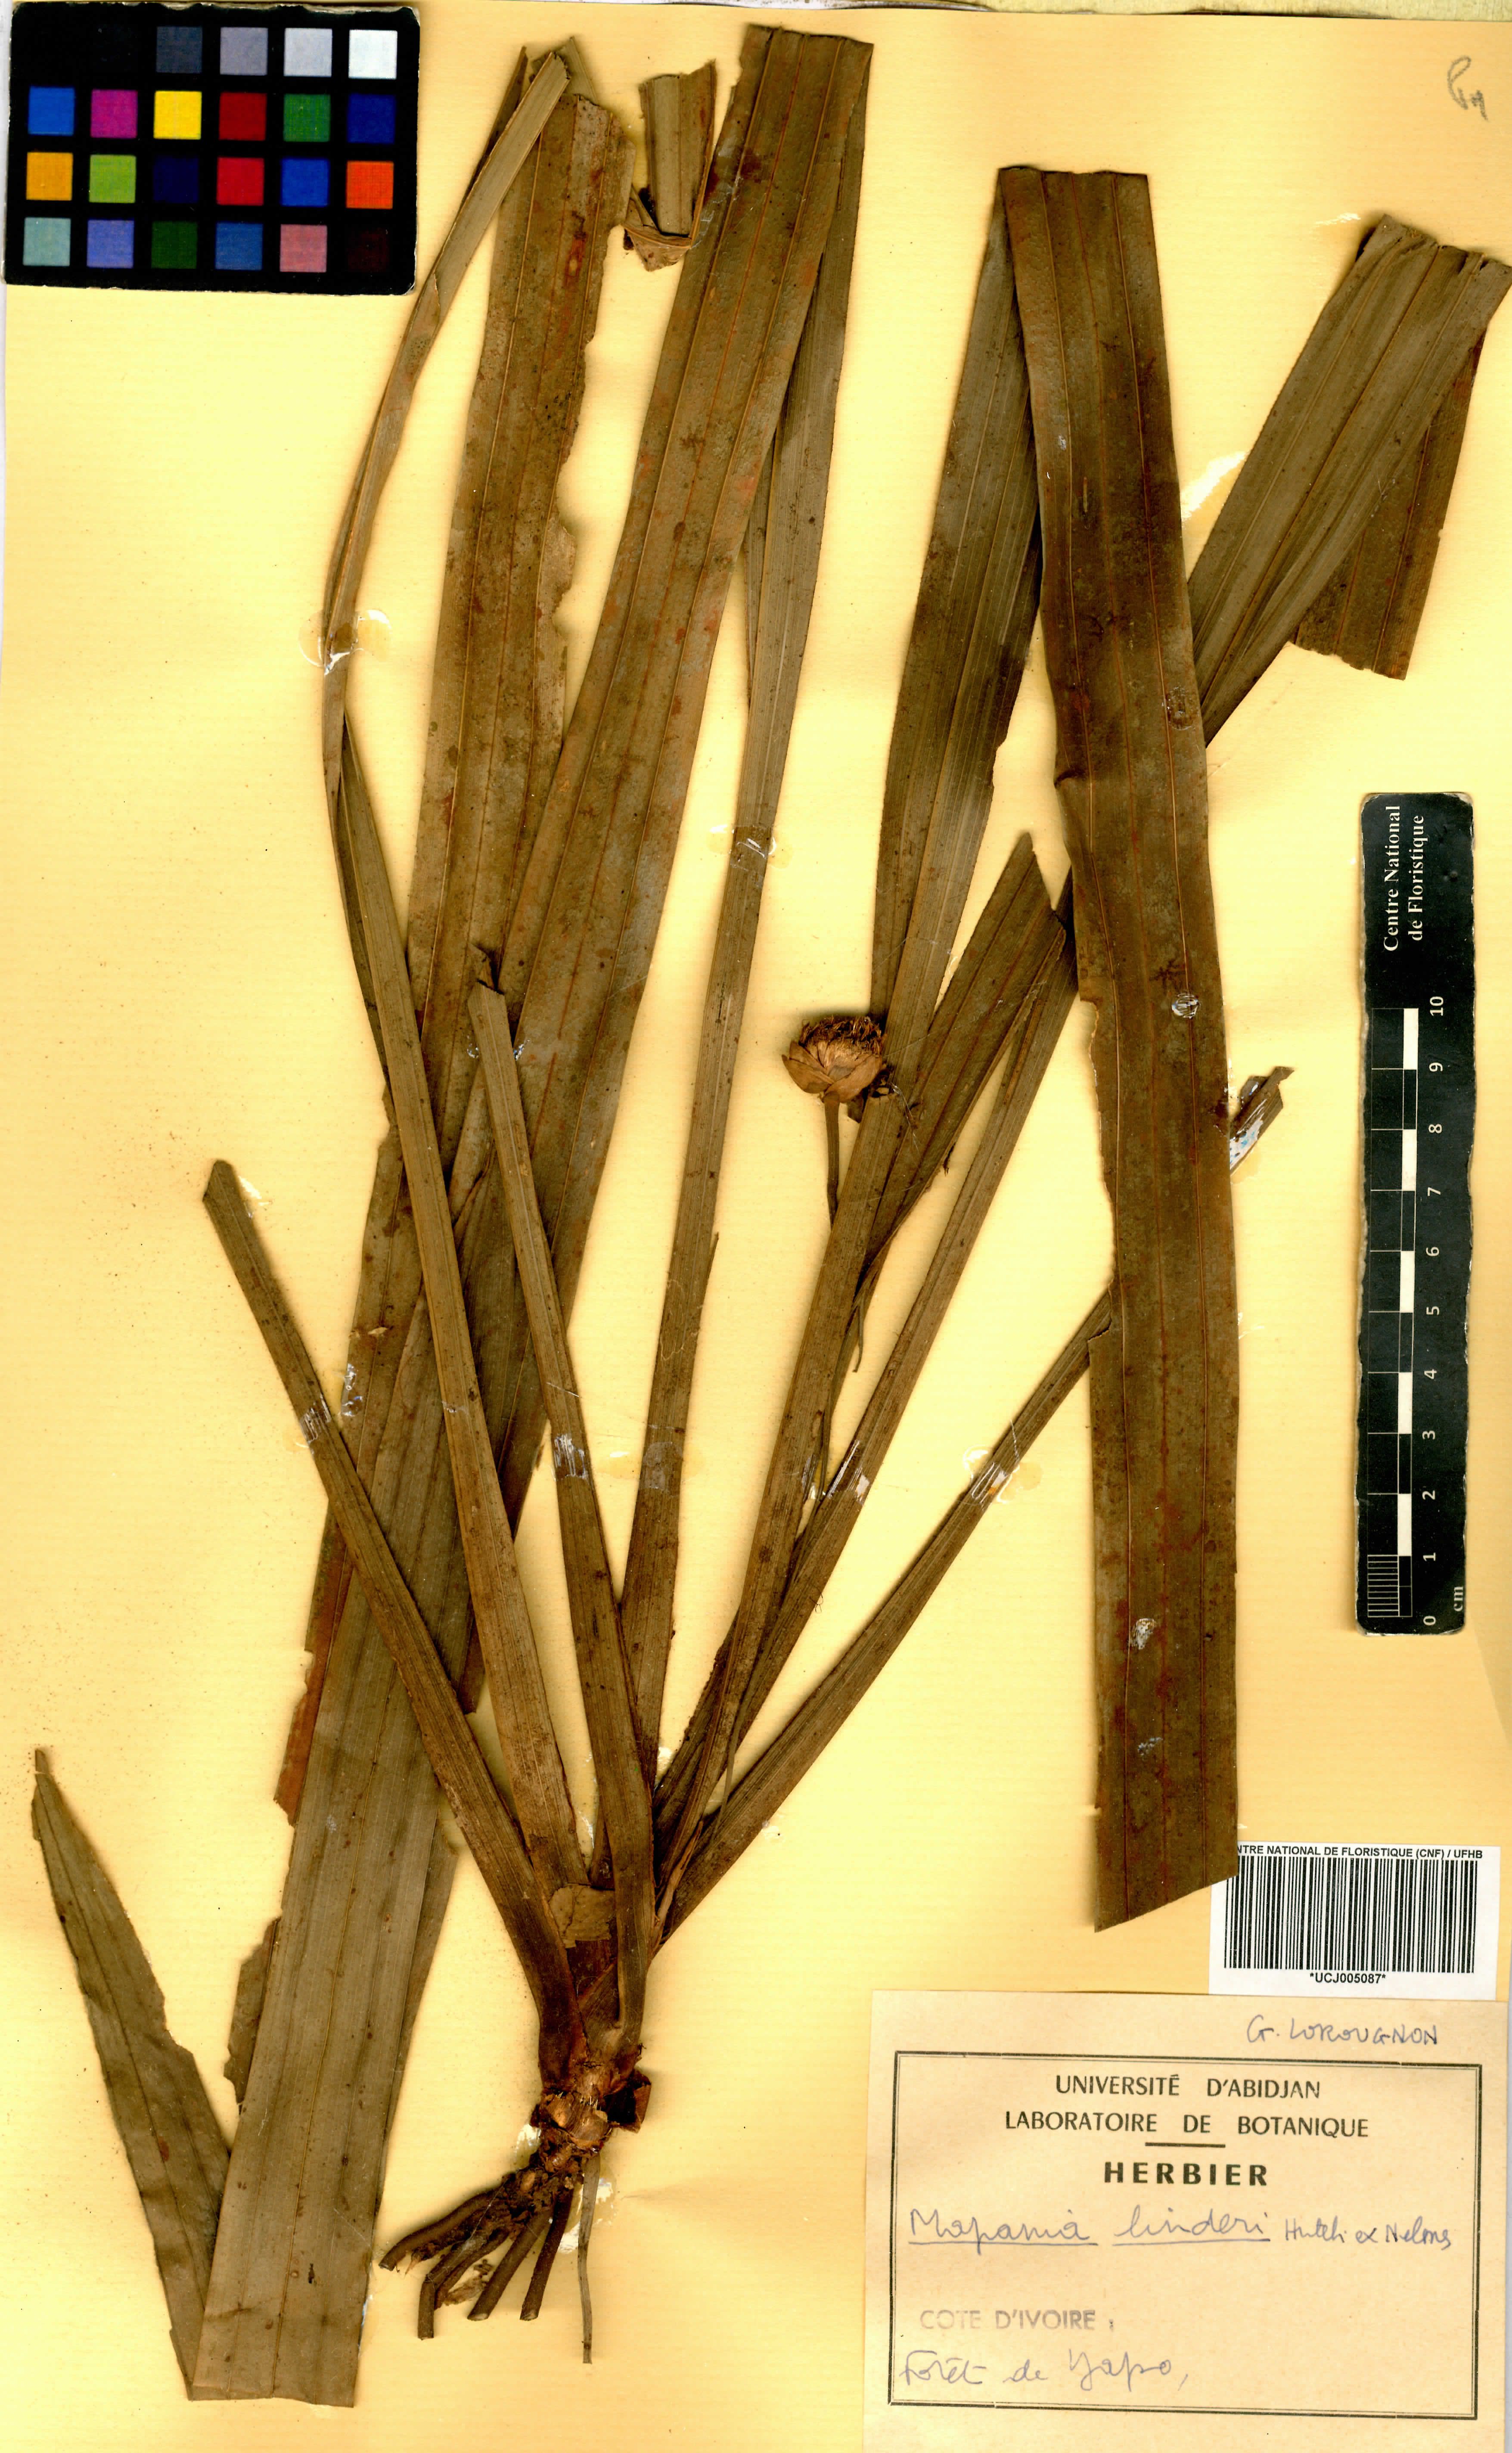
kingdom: Plantae
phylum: Tracheophyta
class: Liliopsida
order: Poales
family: Cyperaceae
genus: Mapania
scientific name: Mapania linderi
